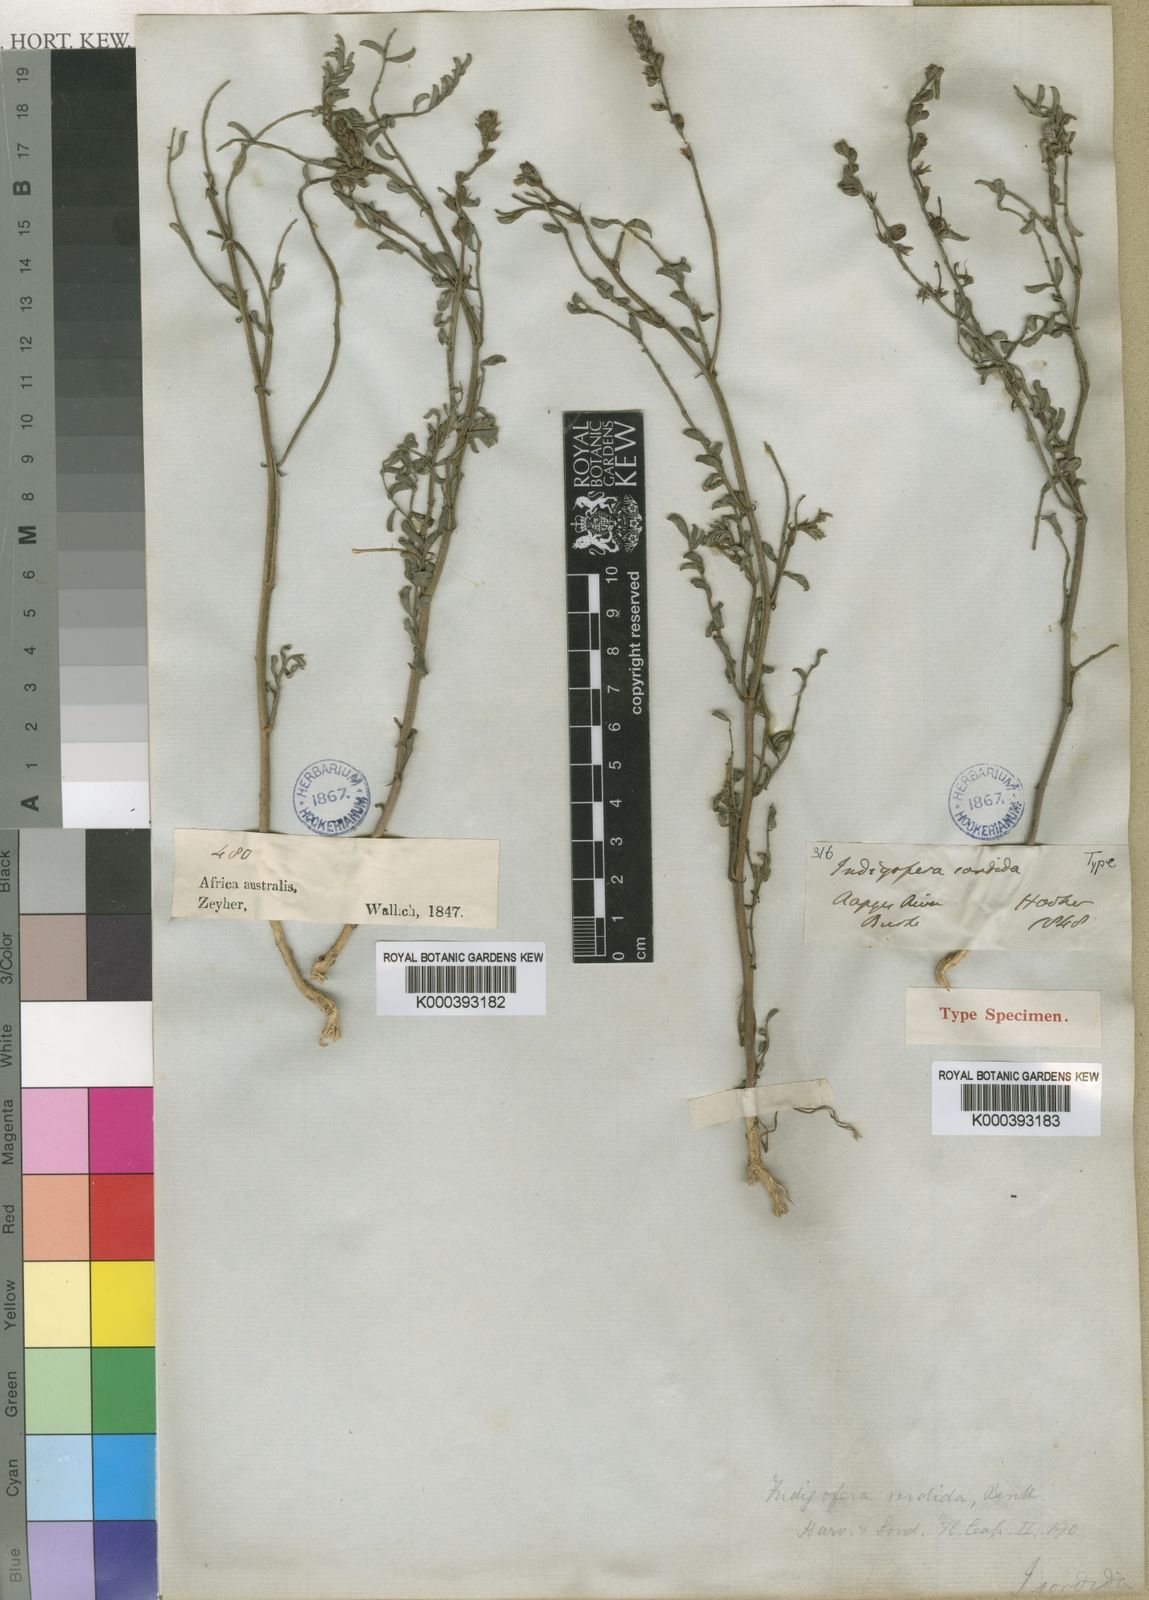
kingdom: Plantae
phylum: Tracheophyta
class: Magnoliopsida
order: Fabales
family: Fabaceae
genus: Indigofera
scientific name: Indigofera sordida
